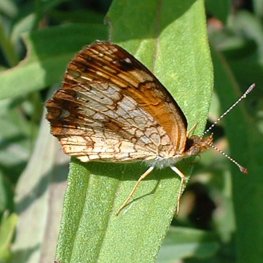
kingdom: Animalia
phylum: Arthropoda
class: Insecta
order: Lepidoptera
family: Nymphalidae
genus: Phyciodes
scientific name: Phyciodes tharos
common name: Pearl Crescent
